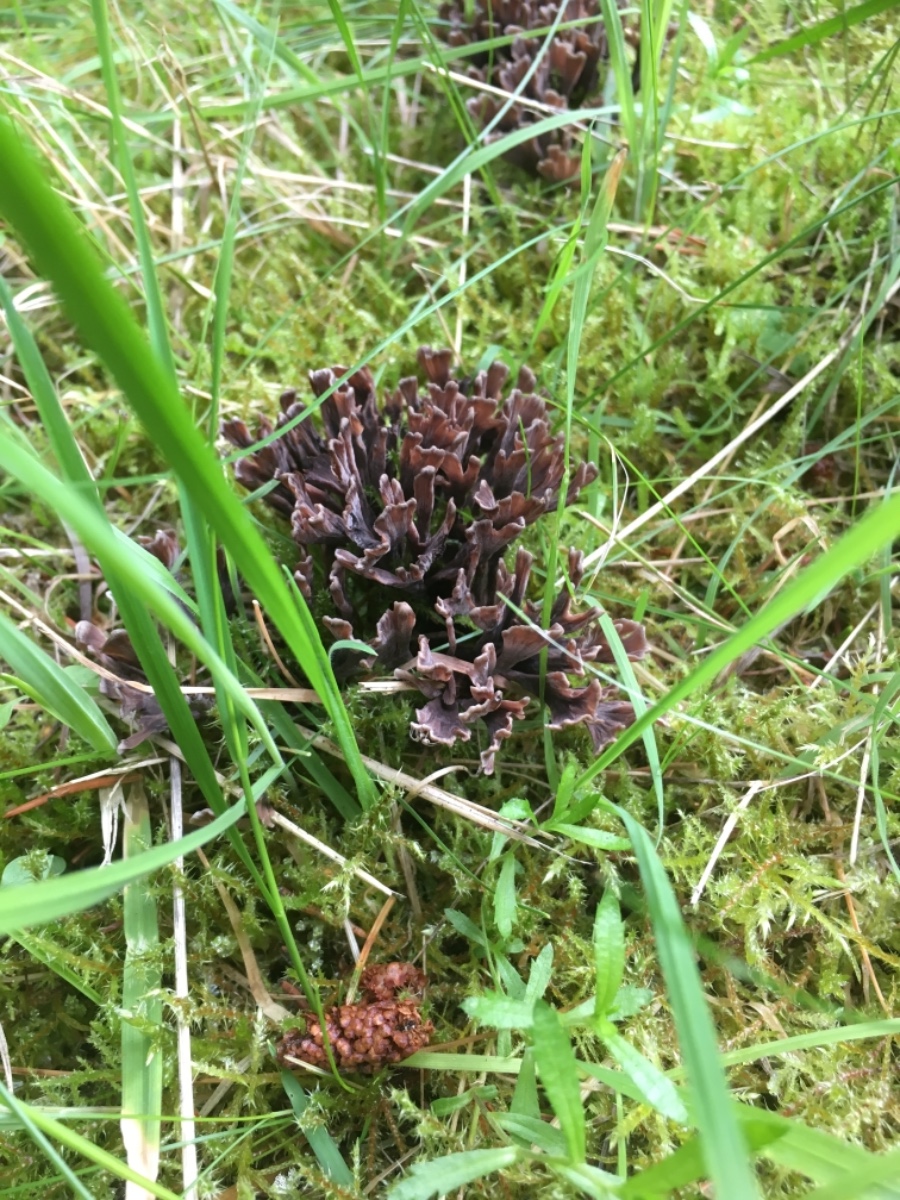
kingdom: Fungi
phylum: Basidiomycota
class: Agaricomycetes
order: Thelephorales
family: Thelephoraceae
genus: Thelephora
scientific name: Thelephora palmata
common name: grenet frynsesvamp
